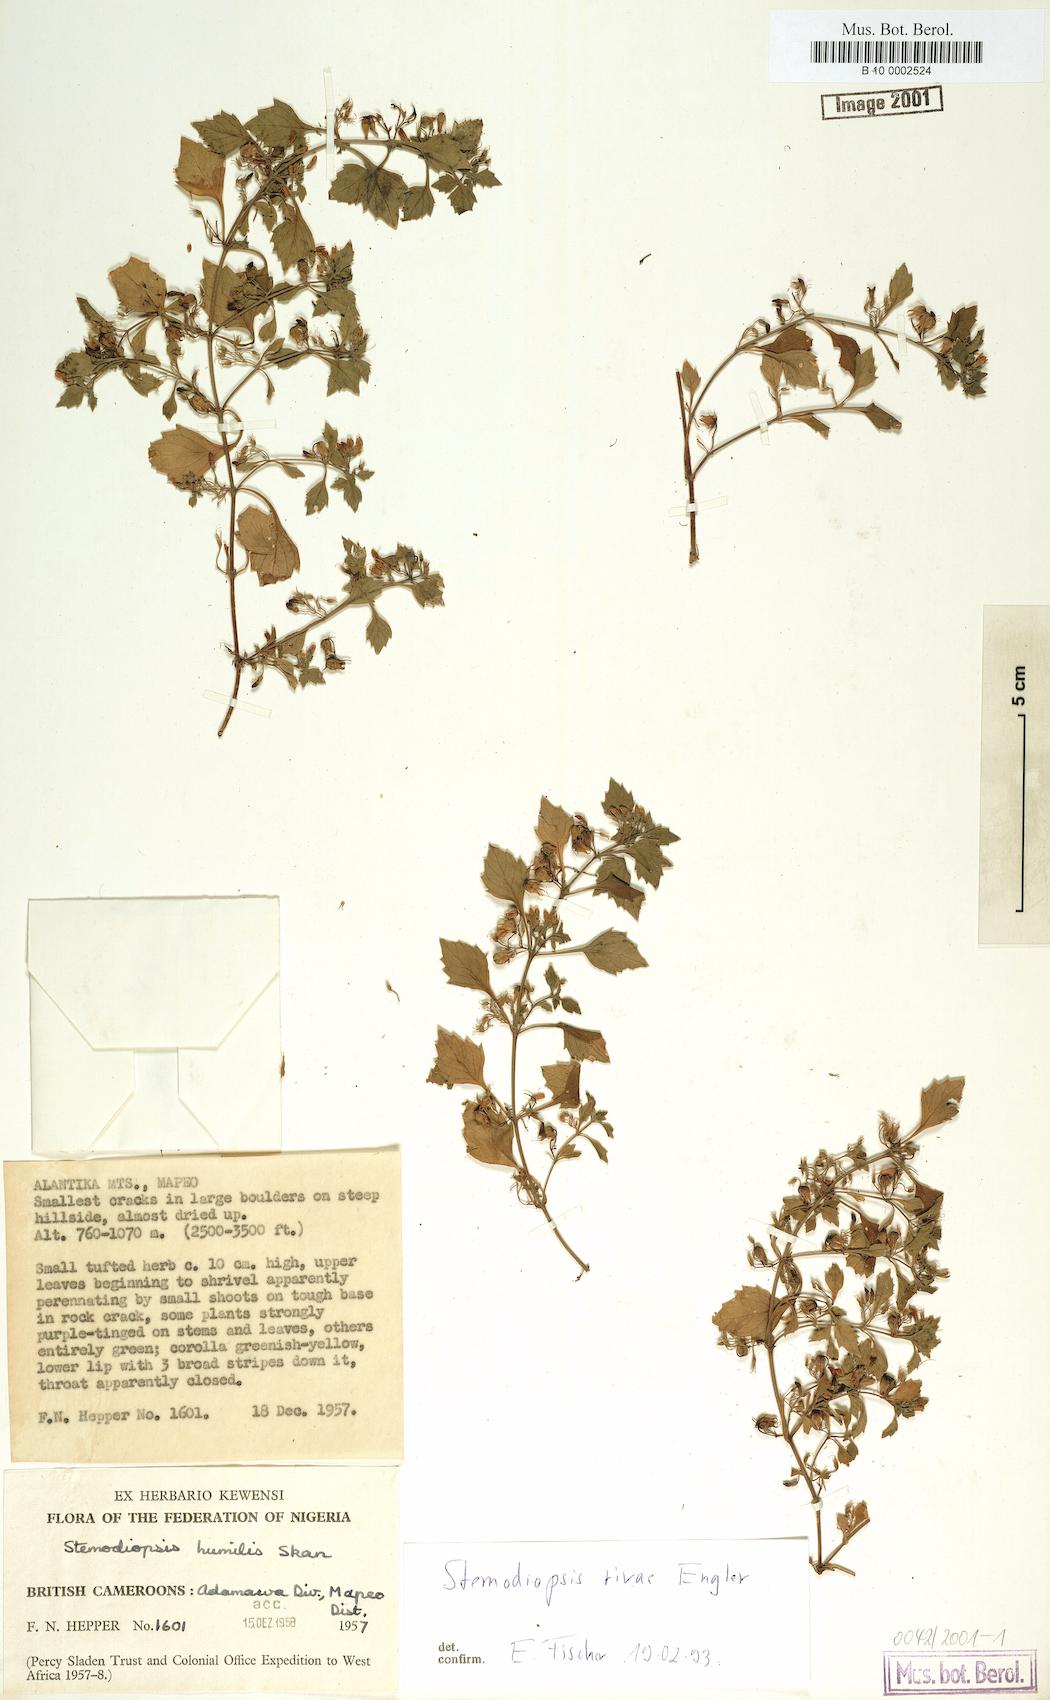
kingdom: Plantae
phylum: Tracheophyta
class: Magnoliopsida
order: Lamiales
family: Linderniaceae
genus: Stemodiopsis
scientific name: Stemodiopsis rivae
